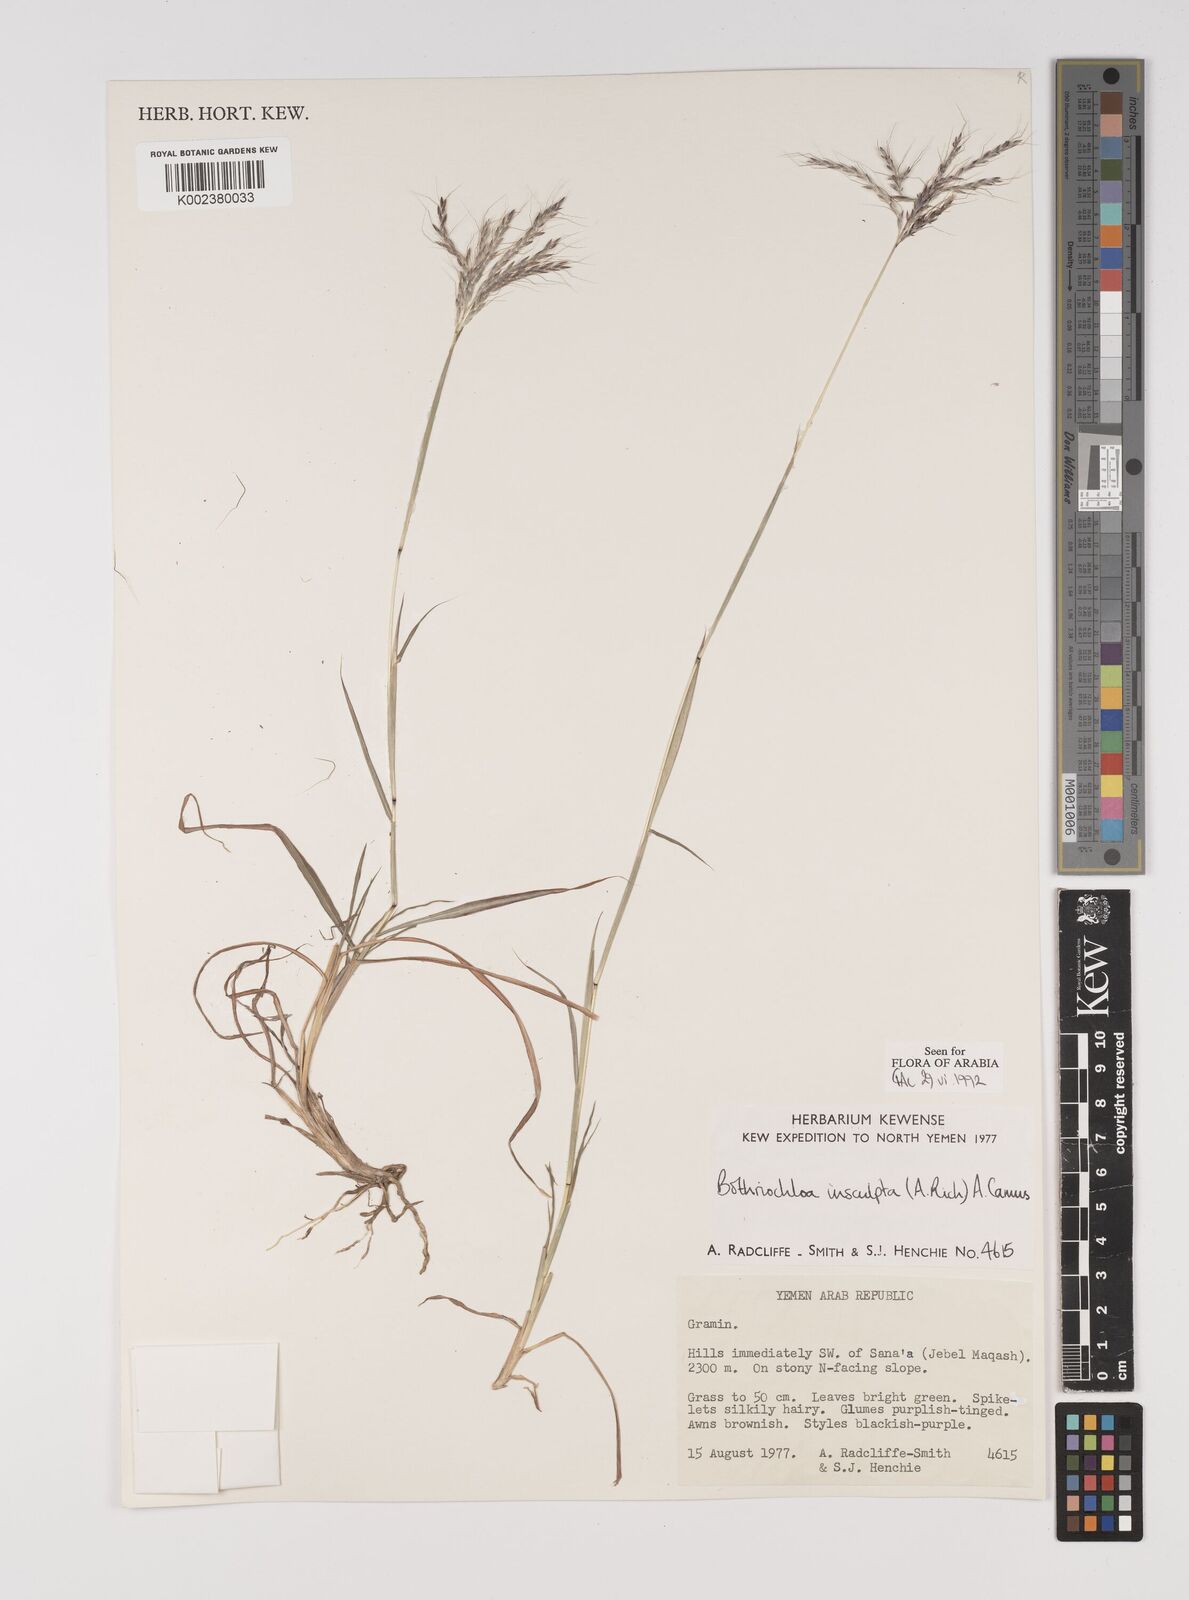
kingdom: Plantae
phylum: Tracheophyta
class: Liliopsida
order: Poales
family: Poaceae
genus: Bothriochloa
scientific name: Bothriochloa insculpta
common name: Creeping-bluegrass
